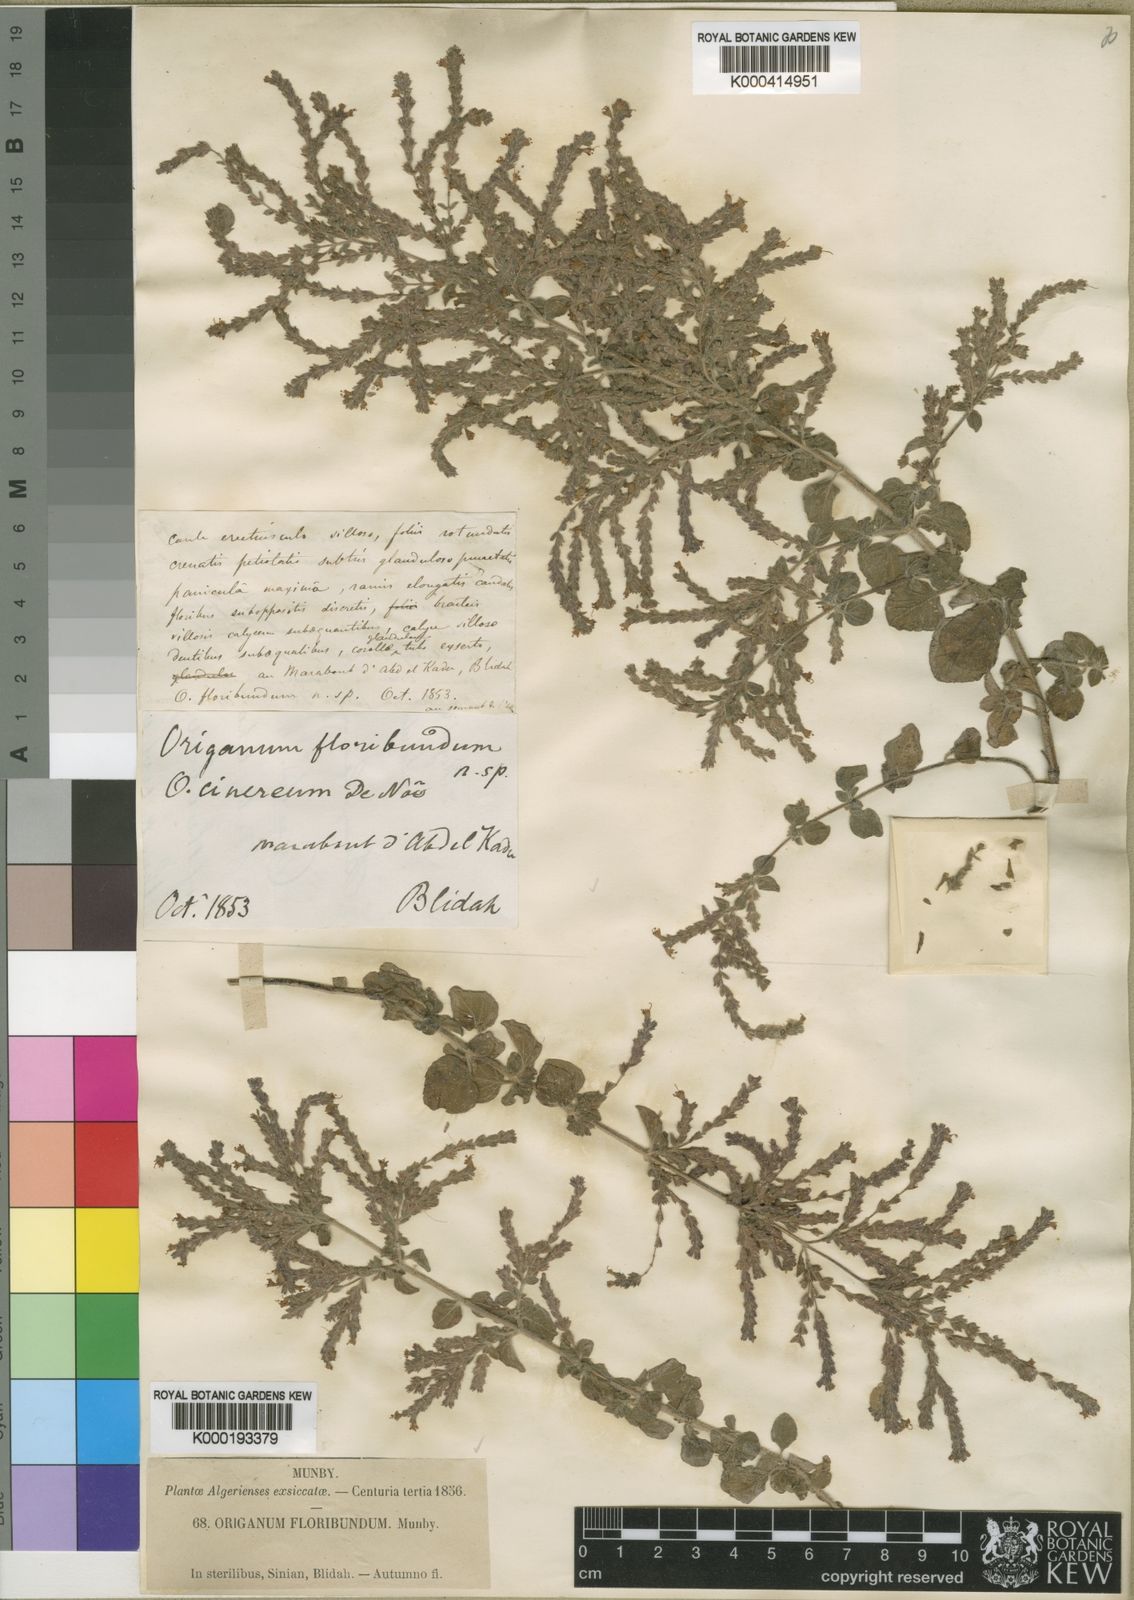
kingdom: Plantae
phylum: Tracheophyta
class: Magnoliopsida
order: Lamiales
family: Lamiaceae
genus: Origanum
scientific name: Origanum floribundum
